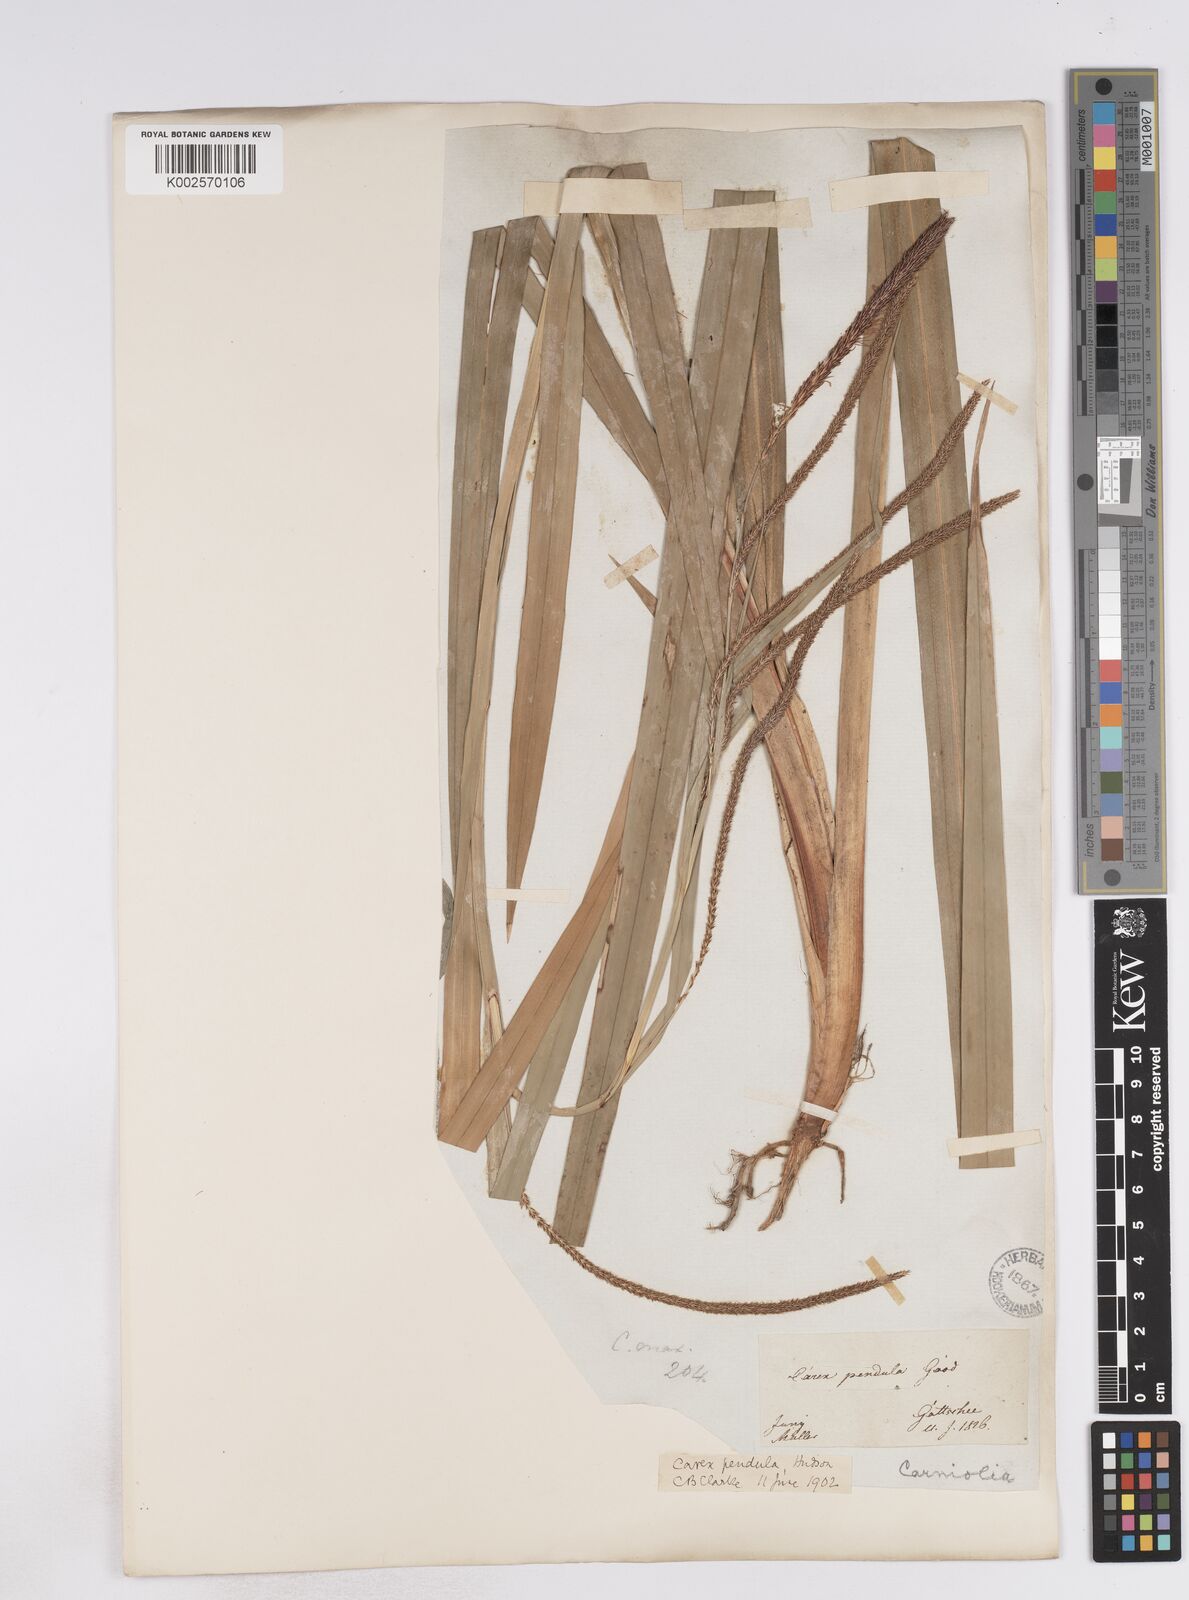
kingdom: Plantae
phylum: Tracheophyta
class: Liliopsida
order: Poales
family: Cyperaceae
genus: Carex
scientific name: Carex pendula
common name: Pendulous sedge
